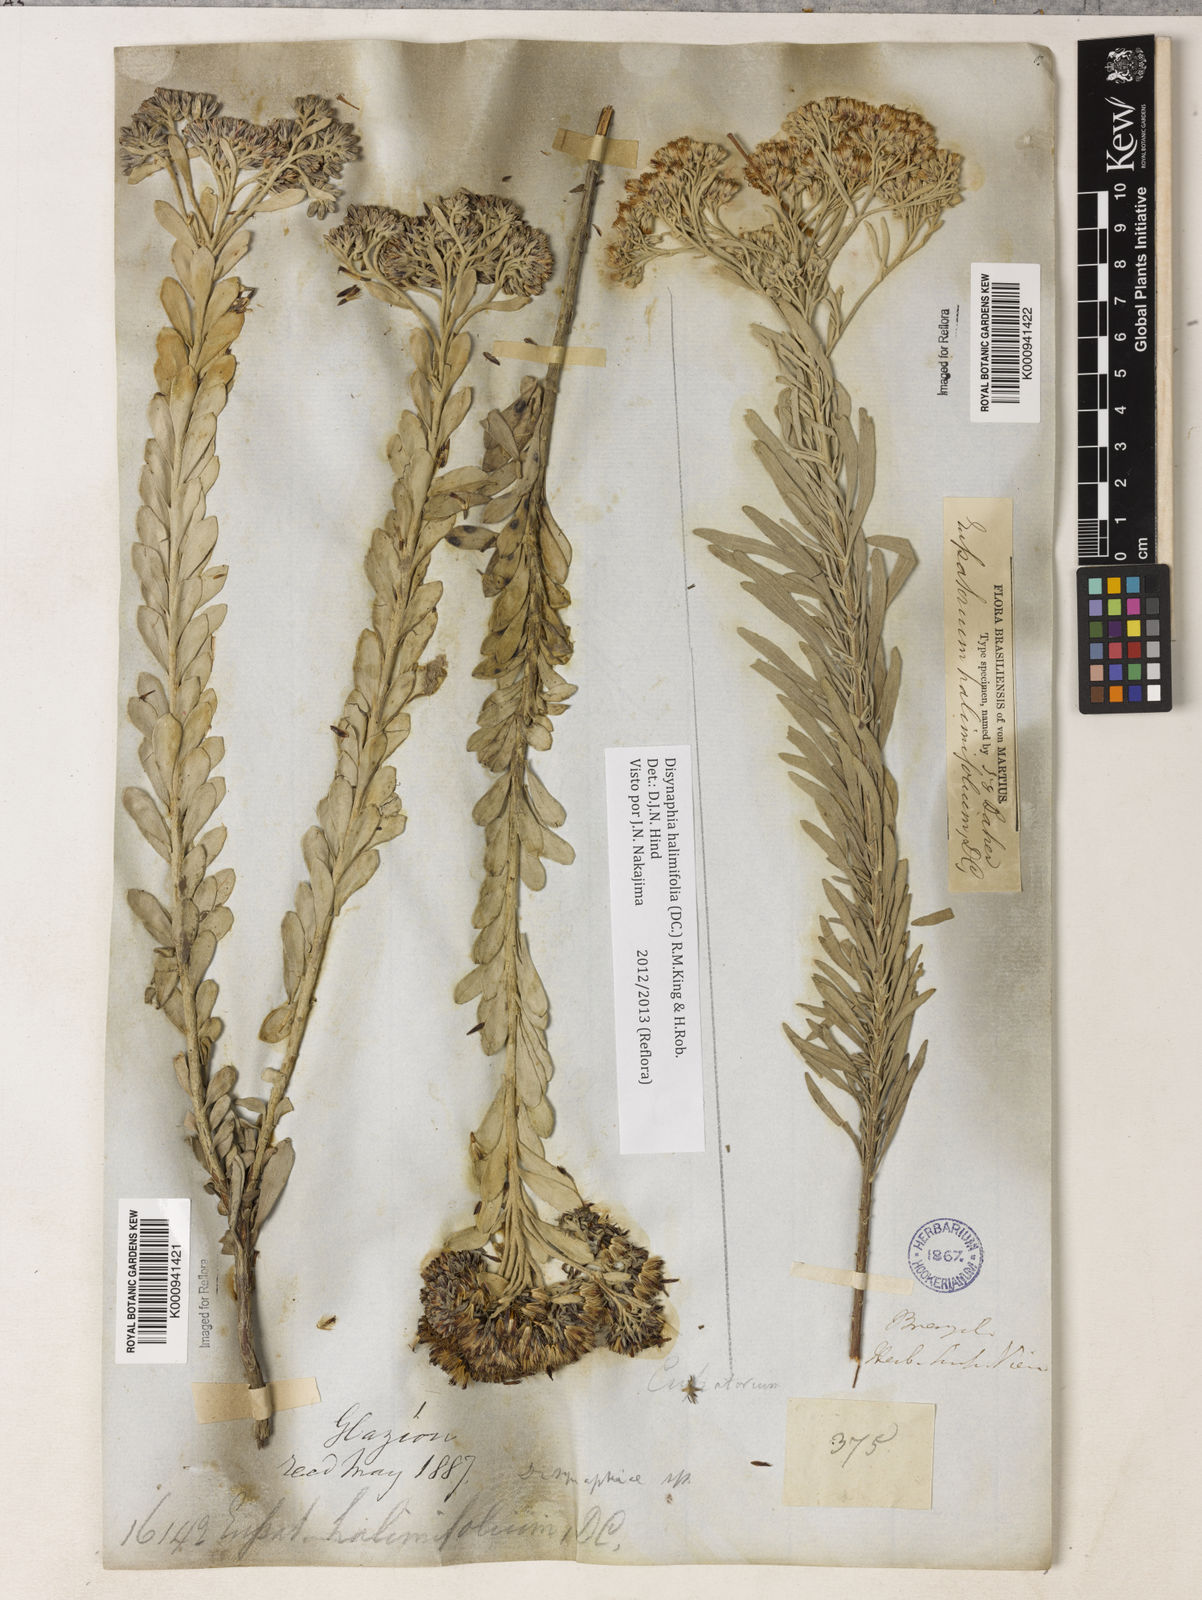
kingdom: Plantae
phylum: Tracheophyta
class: Magnoliopsida
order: Asterales
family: Asteraceae
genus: Disynaphia
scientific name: Disynaphia halimifolia
